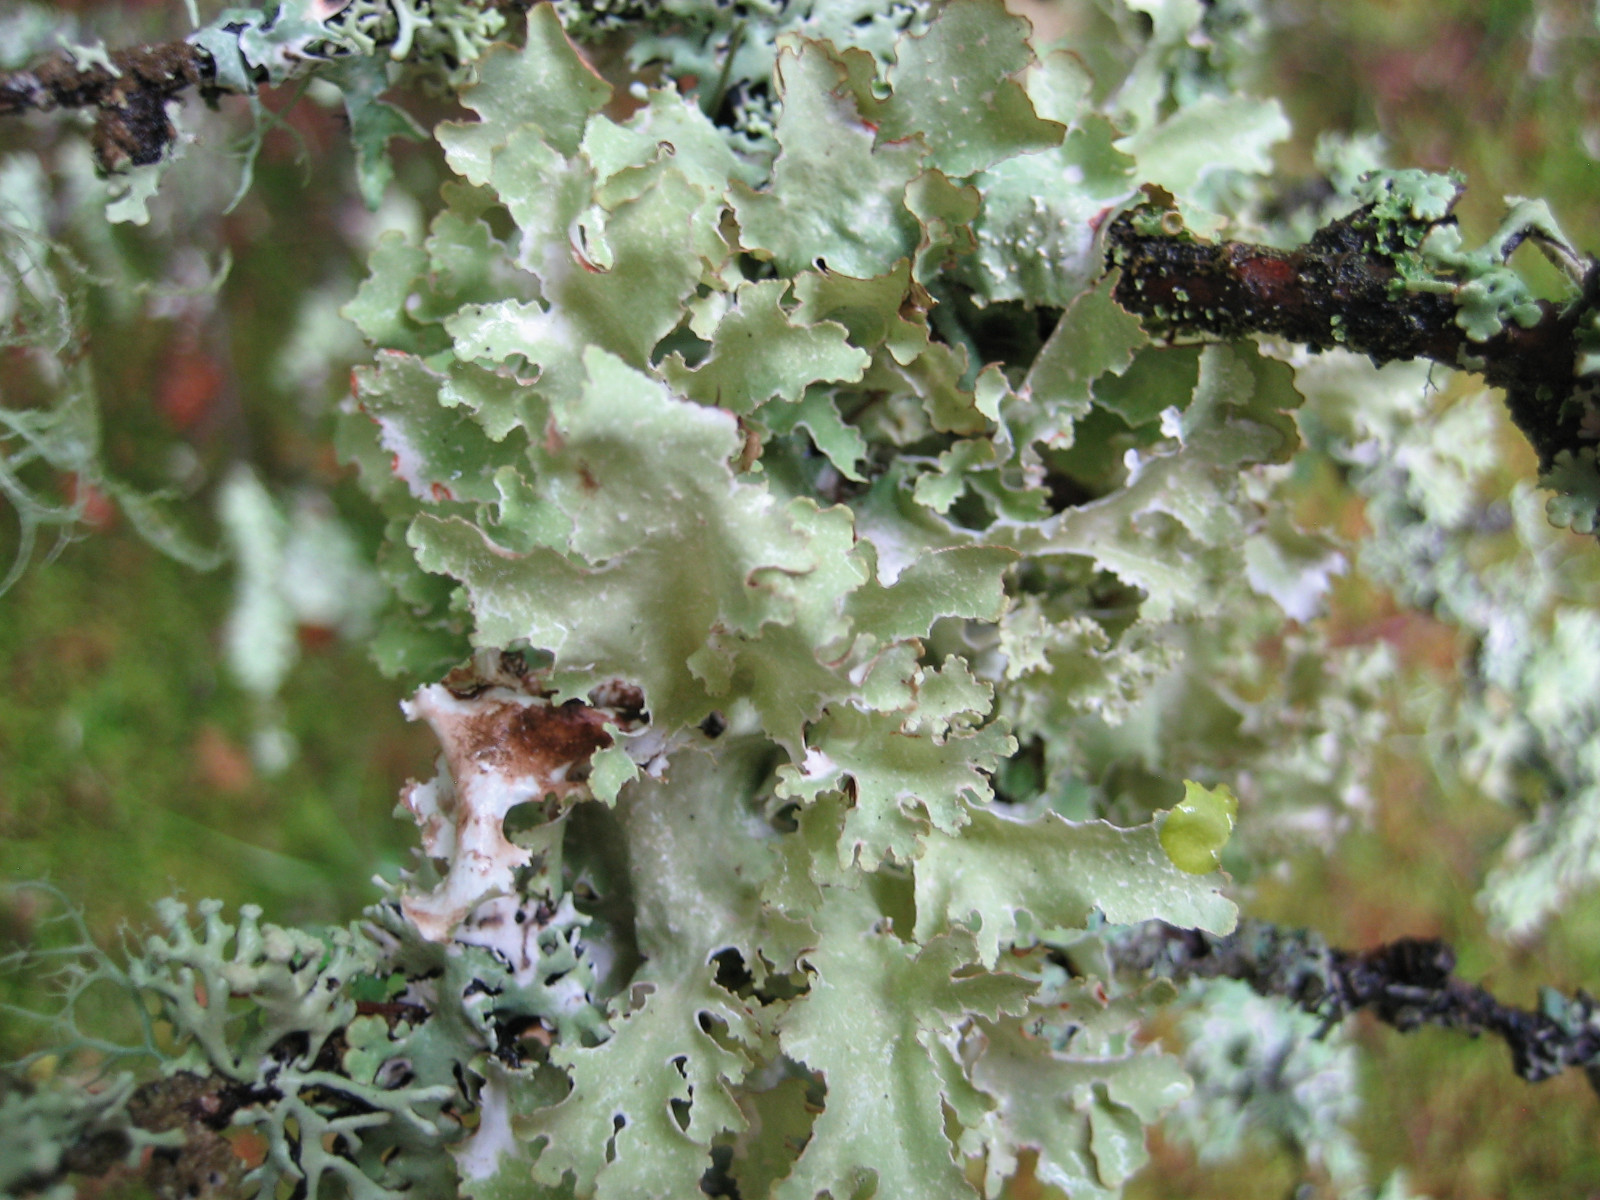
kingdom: Fungi
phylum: Ascomycota
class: Lecanoromycetes
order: Lecanorales
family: Parmeliaceae
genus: Platismatia
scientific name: Platismatia glauca
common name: blågrå papirlav
